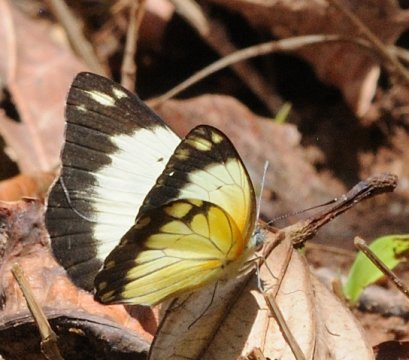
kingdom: Animalia
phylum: Arthropoda
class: Insecta
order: Lepidoptera
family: Pieridae
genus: Belenois
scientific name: Belenois creona
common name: African Caper
